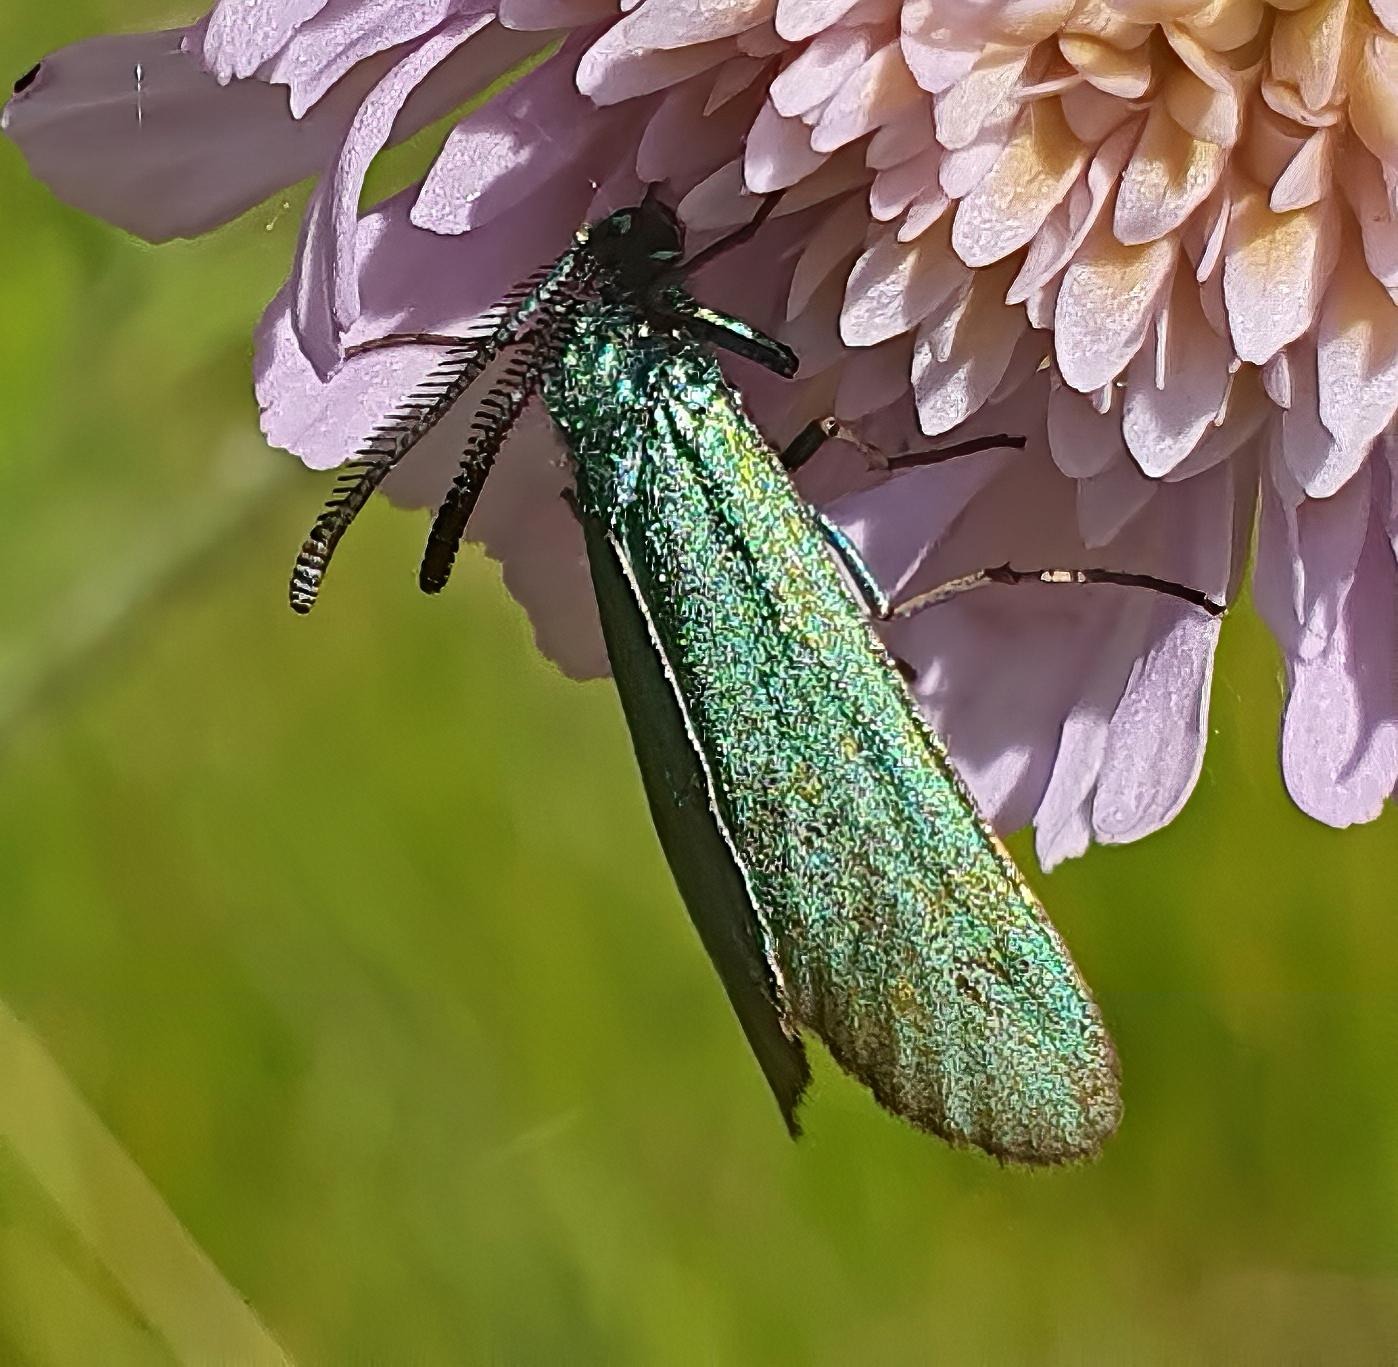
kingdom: Animalia
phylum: Arthropoda
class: Insecta
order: Lepidoptera
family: Zygaenidae
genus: Adscita
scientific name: Adscita statices
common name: Metalvinge
